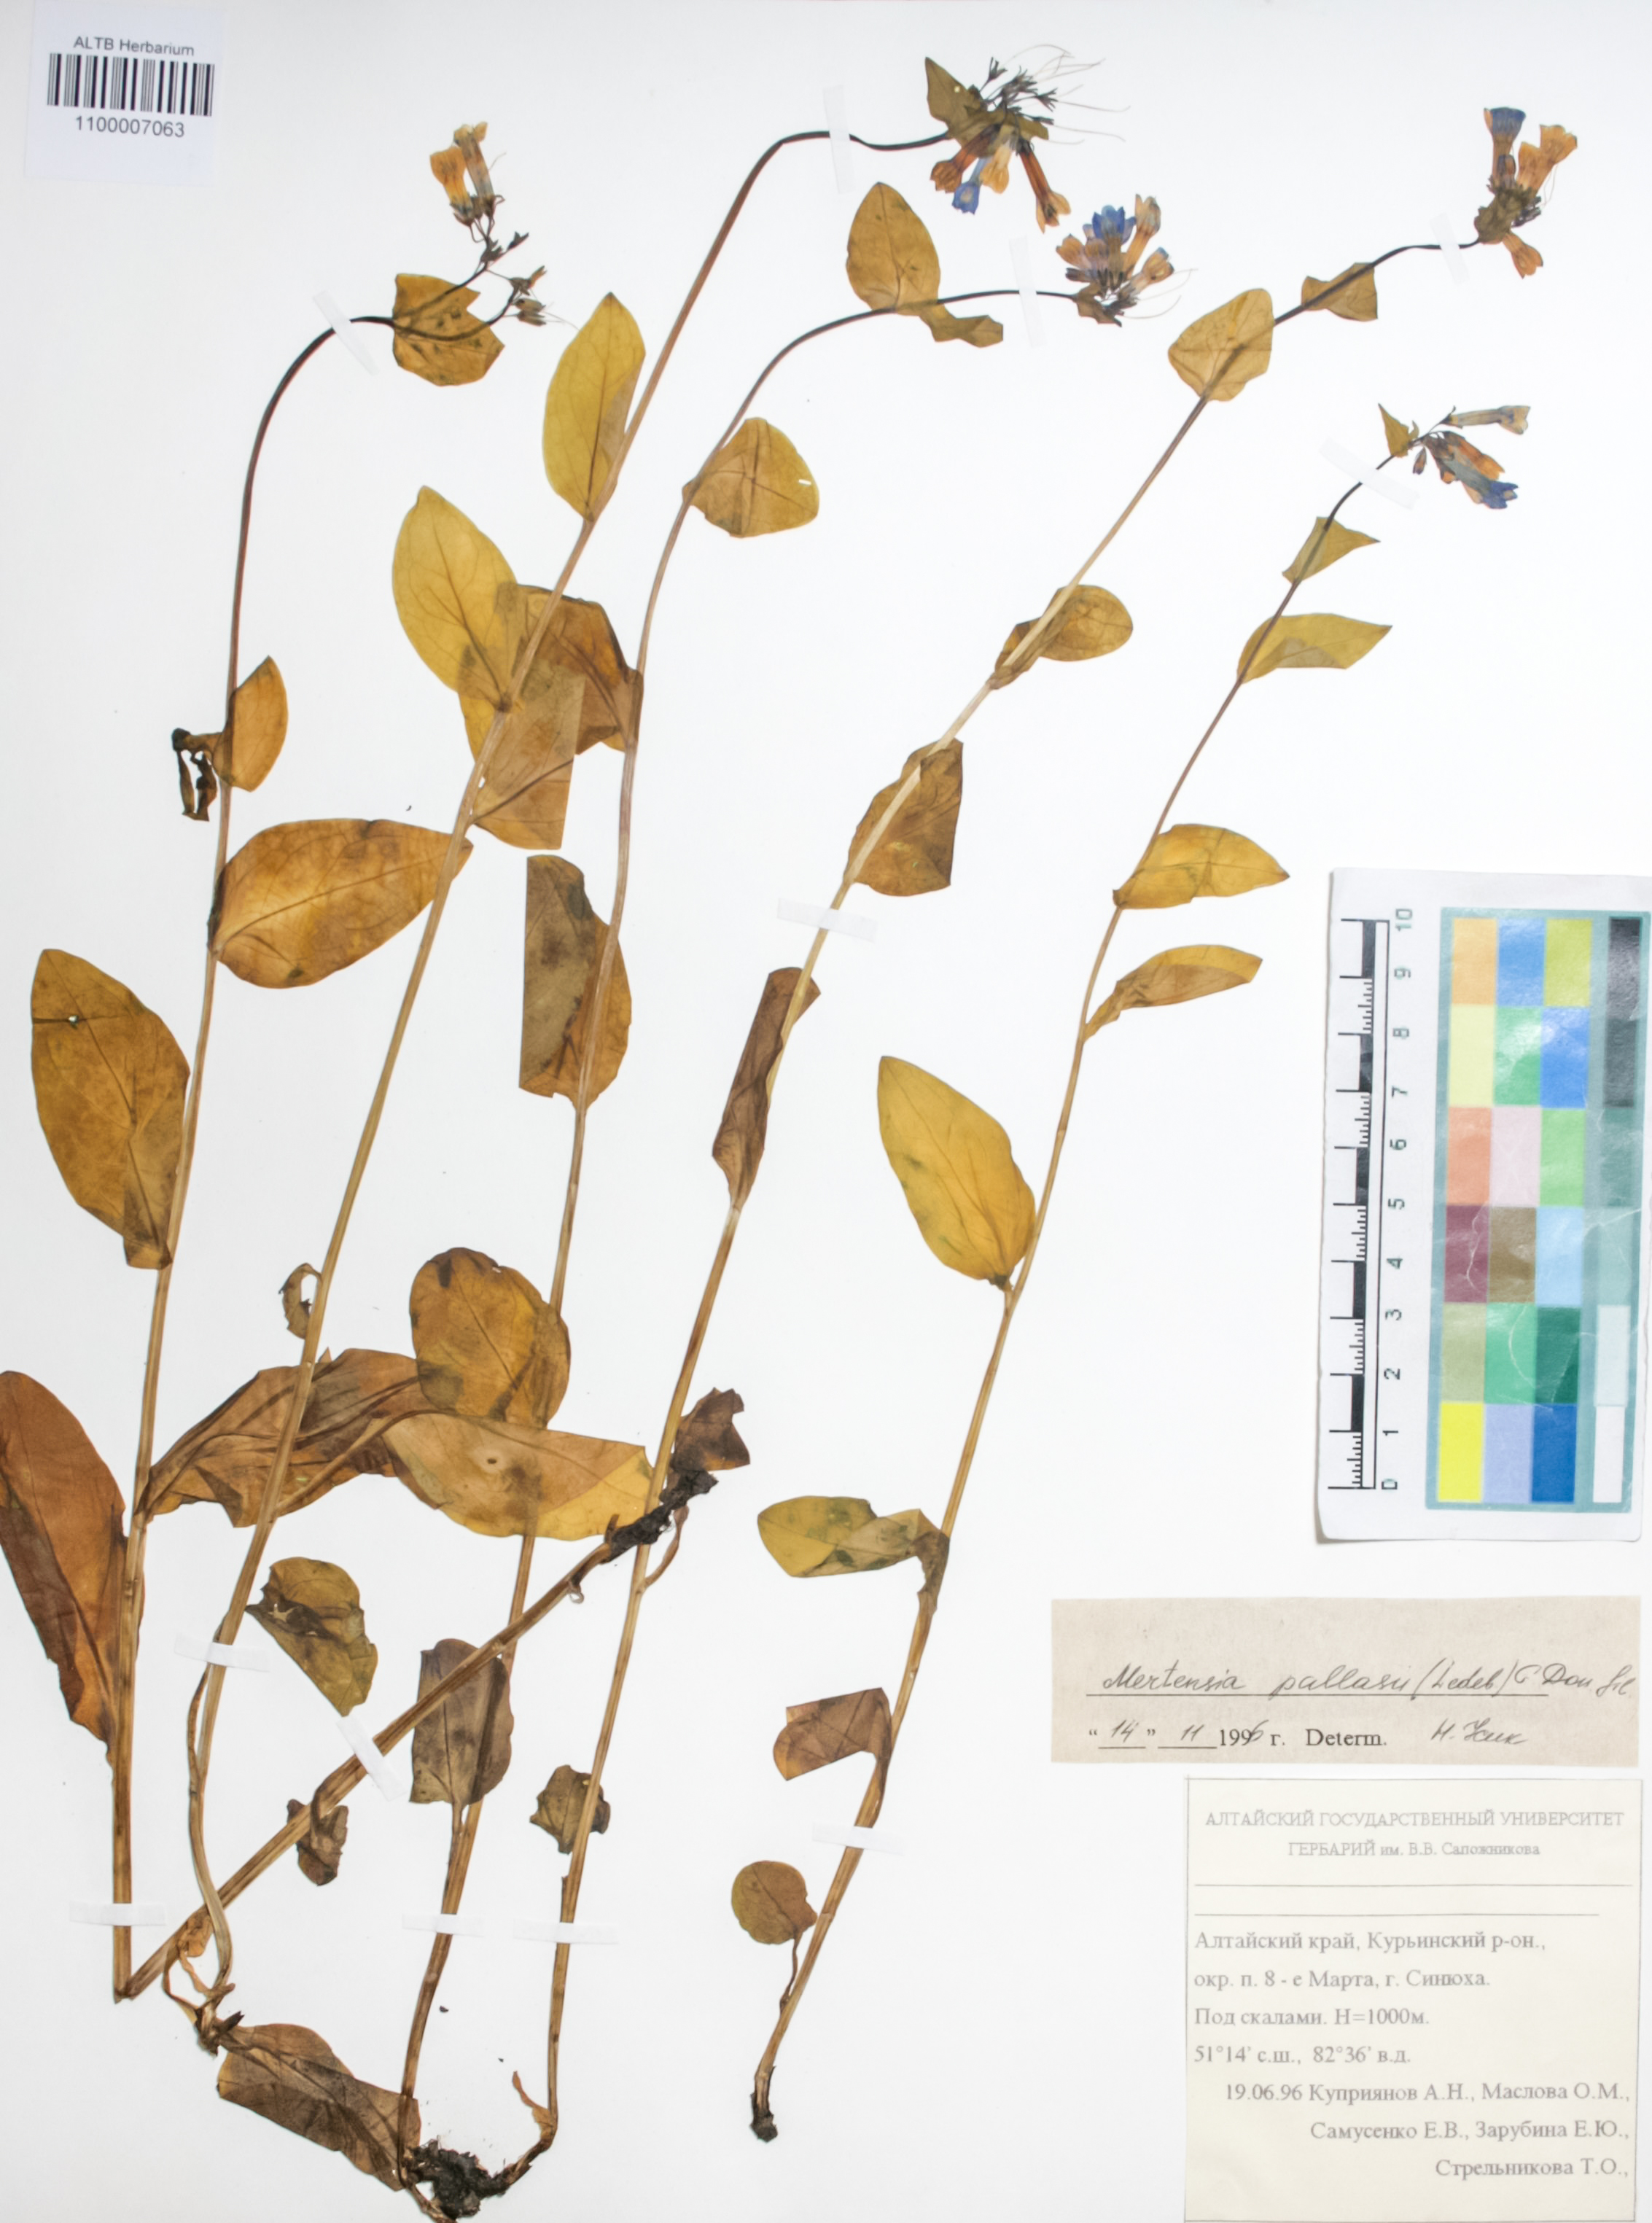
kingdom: Plantae
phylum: Tracheophyta
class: Magnoliopsida
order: Boraginales
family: Boraginaceae
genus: Mertensia
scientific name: Mertensia pallasii
